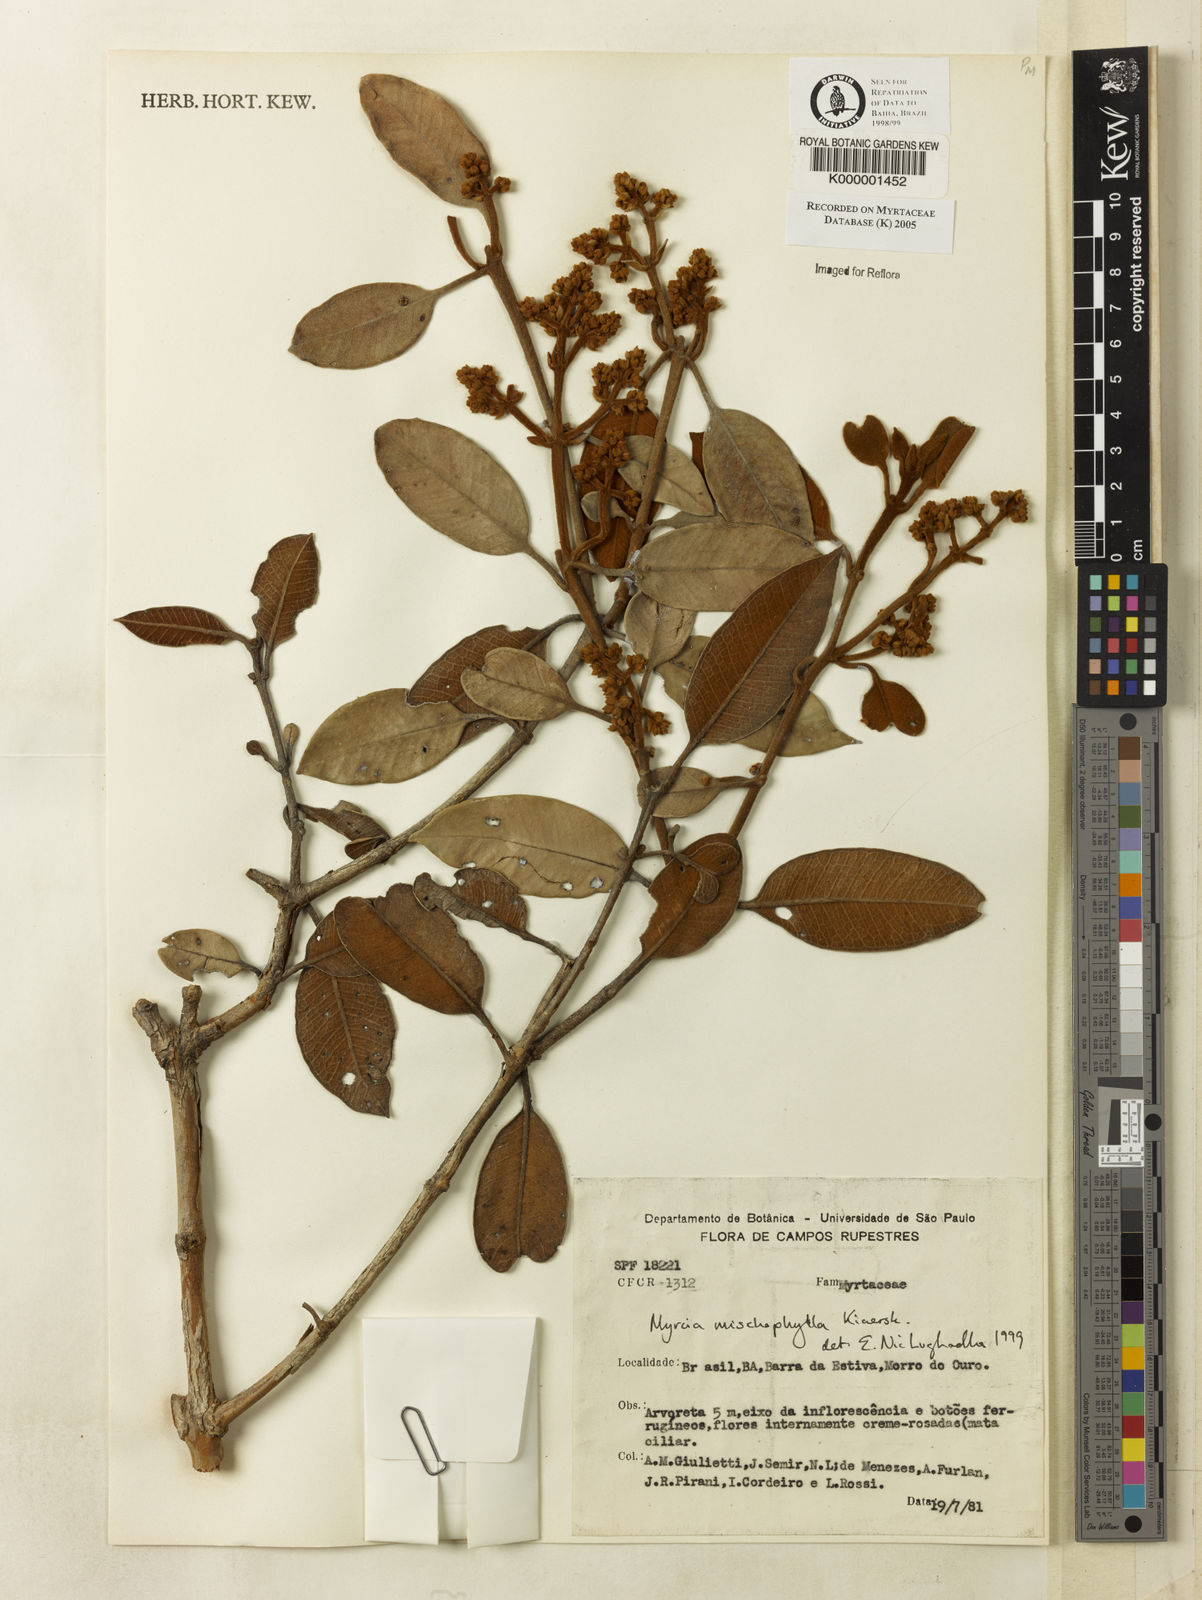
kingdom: Plantae
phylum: Tracheophyta
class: Magnoliopsida
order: Myrtales
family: Myrtaceae
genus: Myrcia
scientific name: Myrcia mischophylla
